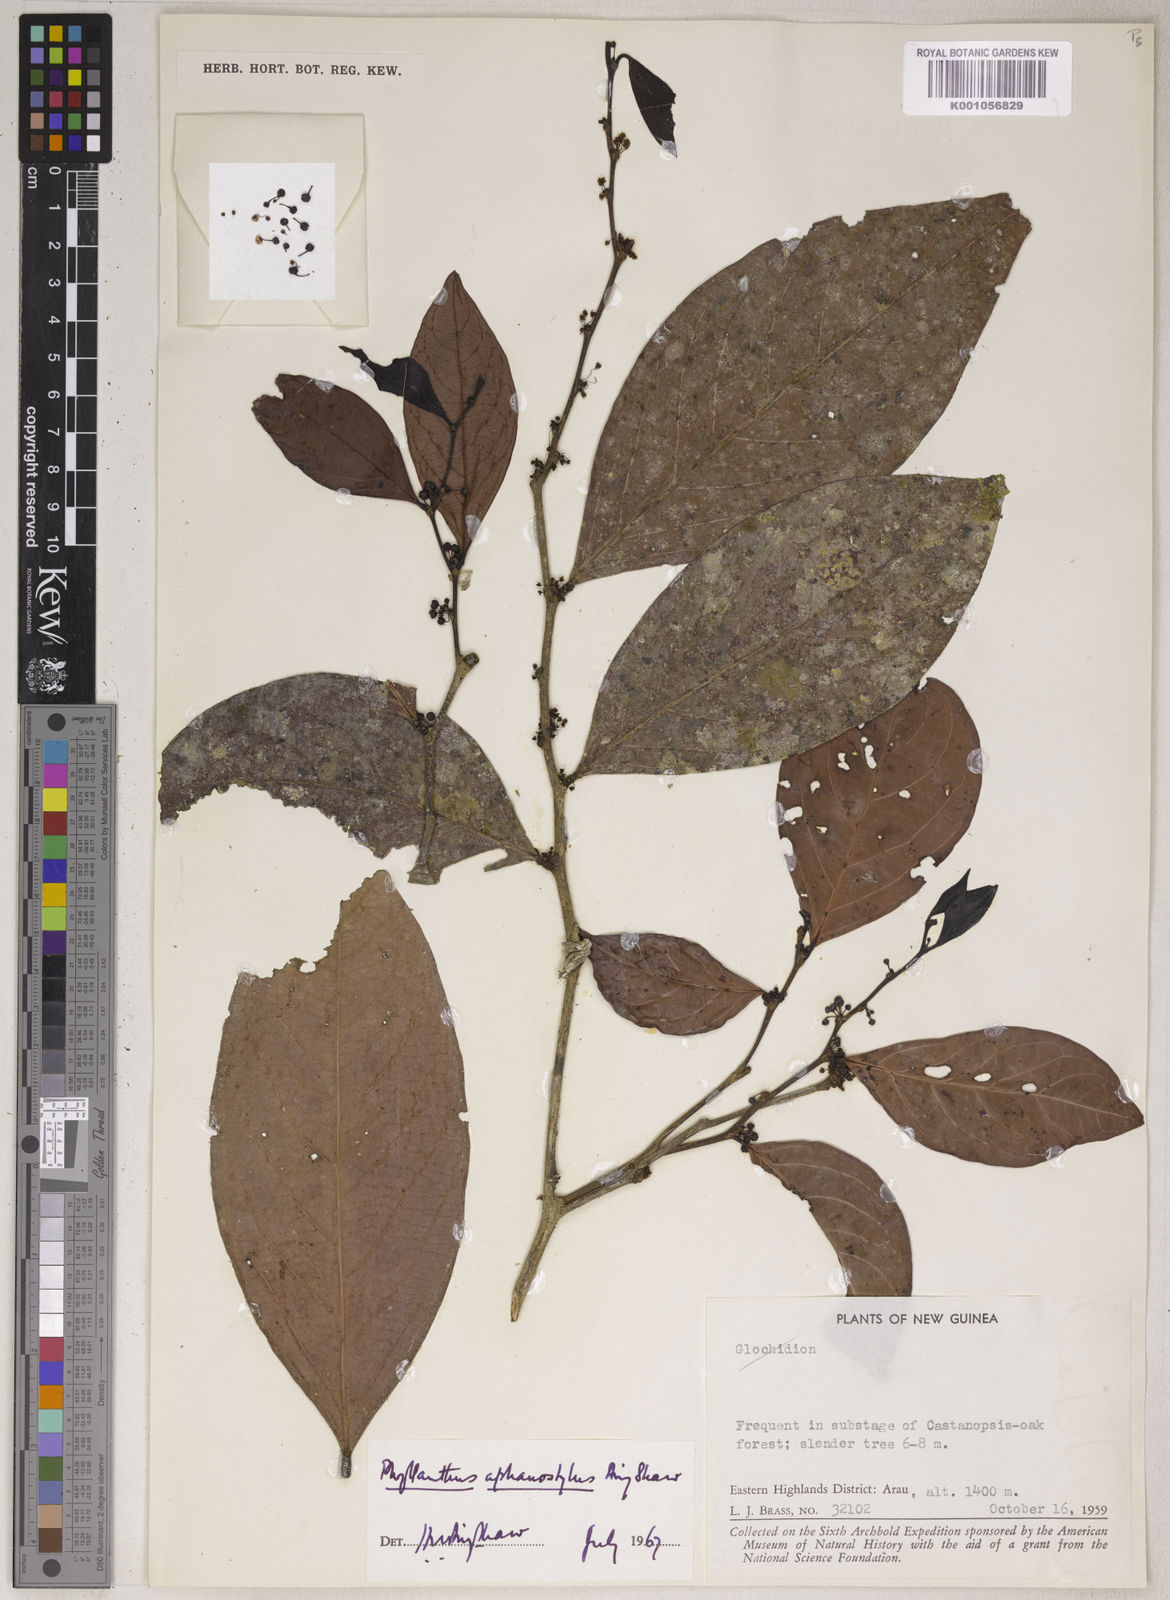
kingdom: Plantae
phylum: Tracheophyta
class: Magnoliopsida
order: Malpighiales
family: Phyllanthaceae
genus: Phyllanthus
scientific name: Phyllanthus aphanostylus
